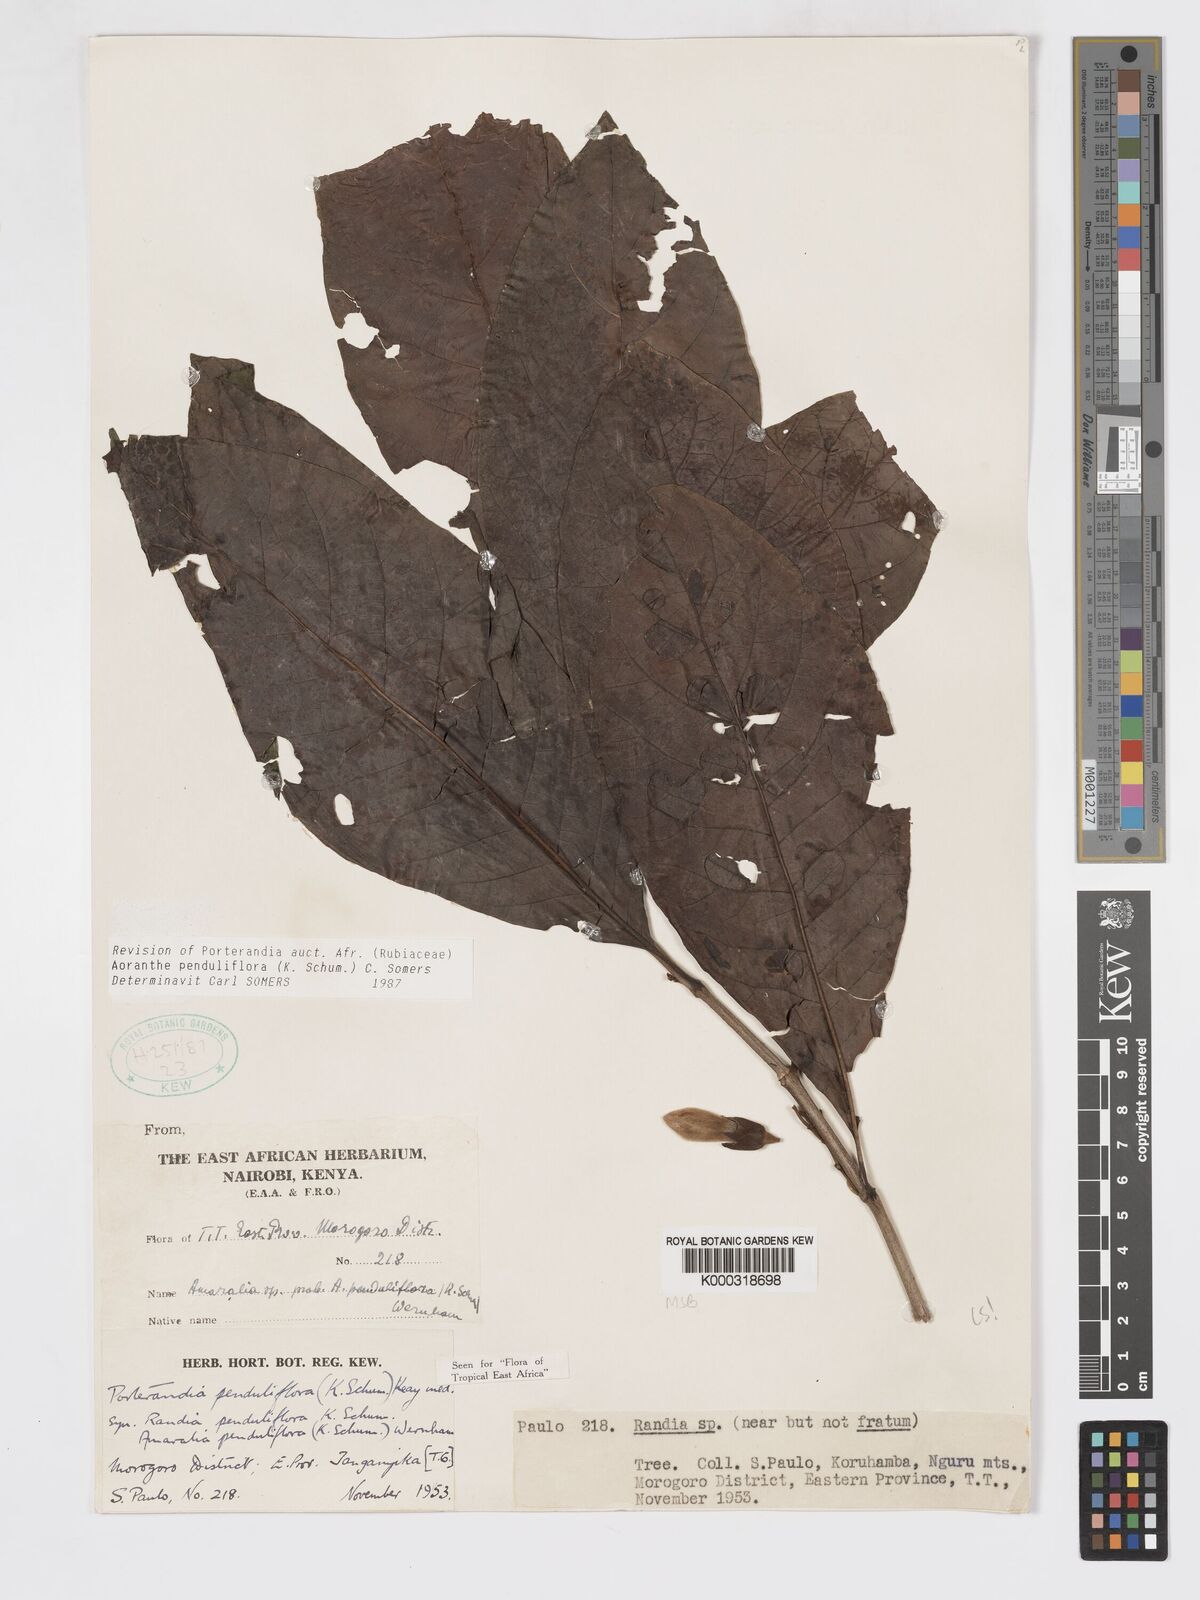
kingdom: Plantae
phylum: Tracheophyta
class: Magnoliopsida
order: Gentianales
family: Rubiaceae
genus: Aoranthe
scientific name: Aoranthe penduliflora
